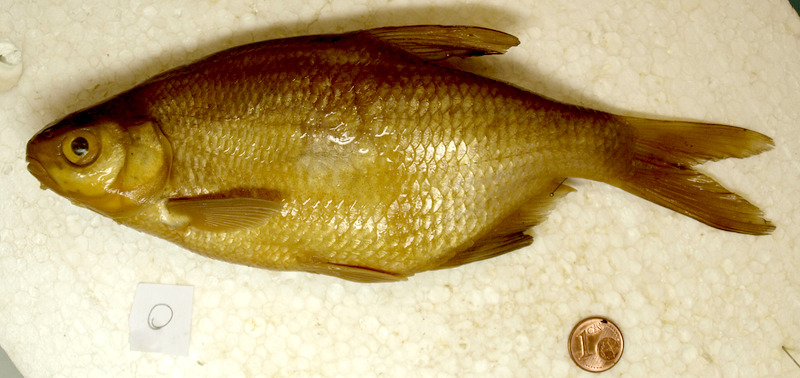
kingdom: Animalia
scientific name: Animalia
